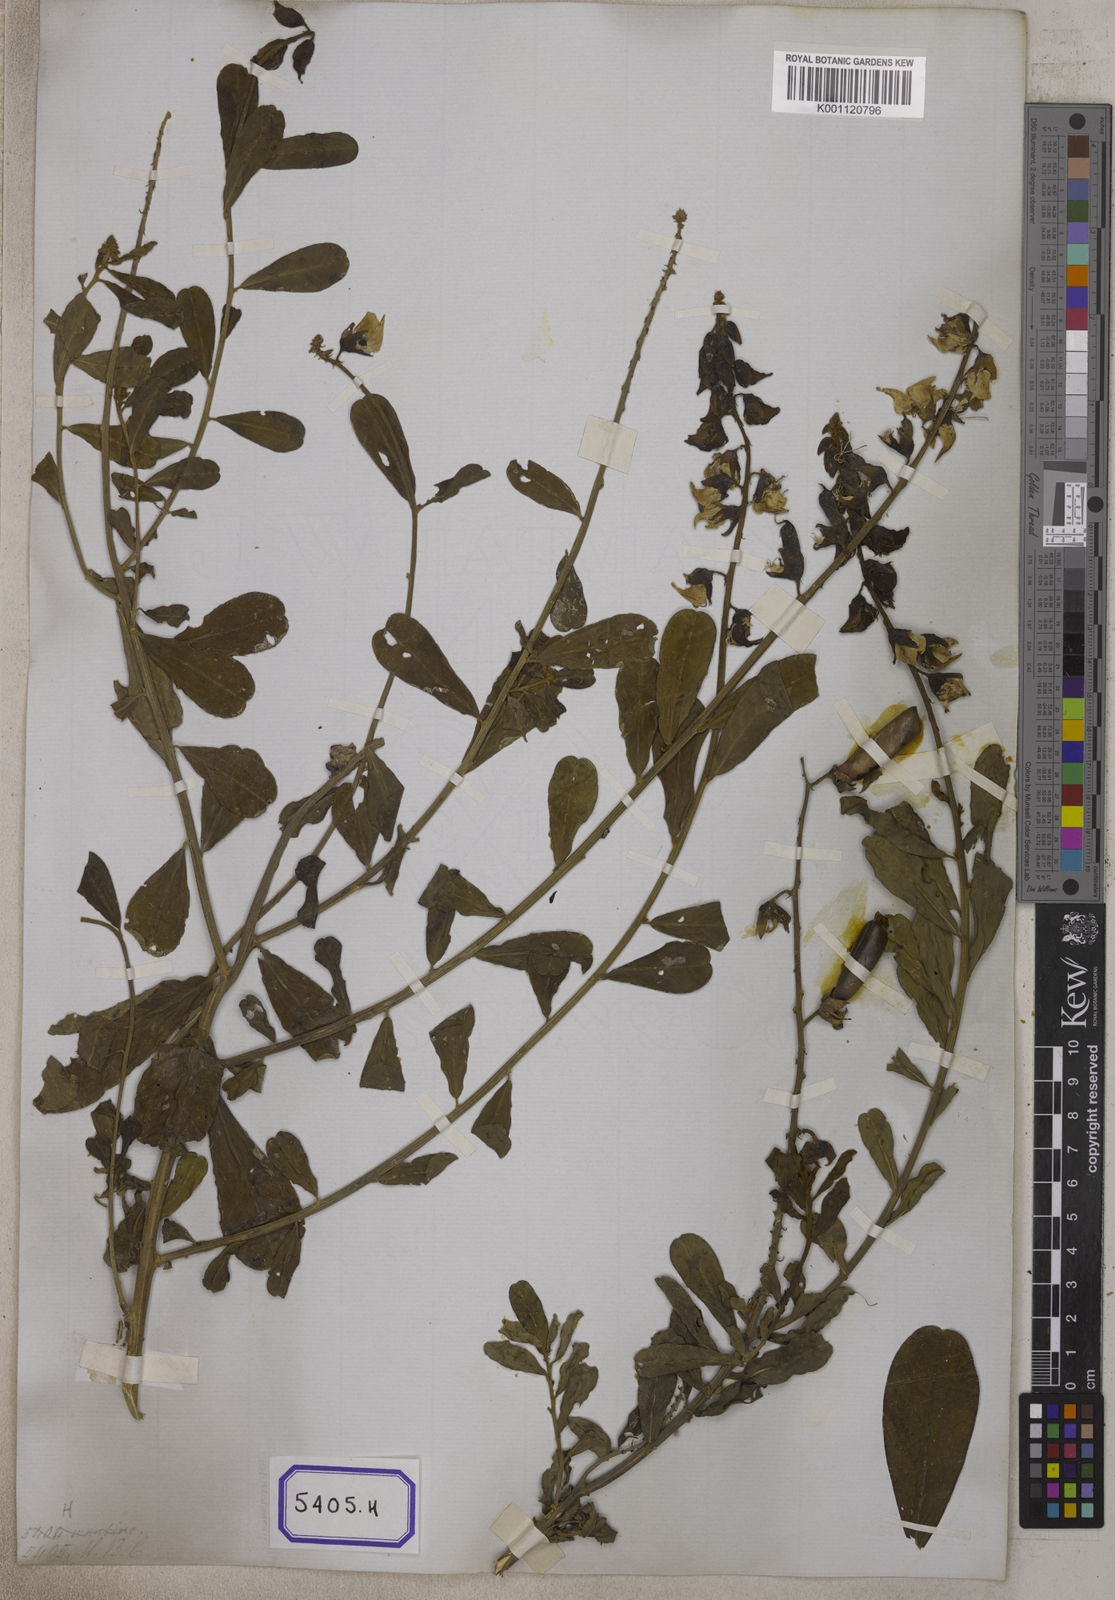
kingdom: Plantae
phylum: Tracheophyta
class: Magnoliopsida
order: Fabales
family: Fabaceae
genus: Crotalaria
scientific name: Crotalaria retusa
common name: Rattleweed
